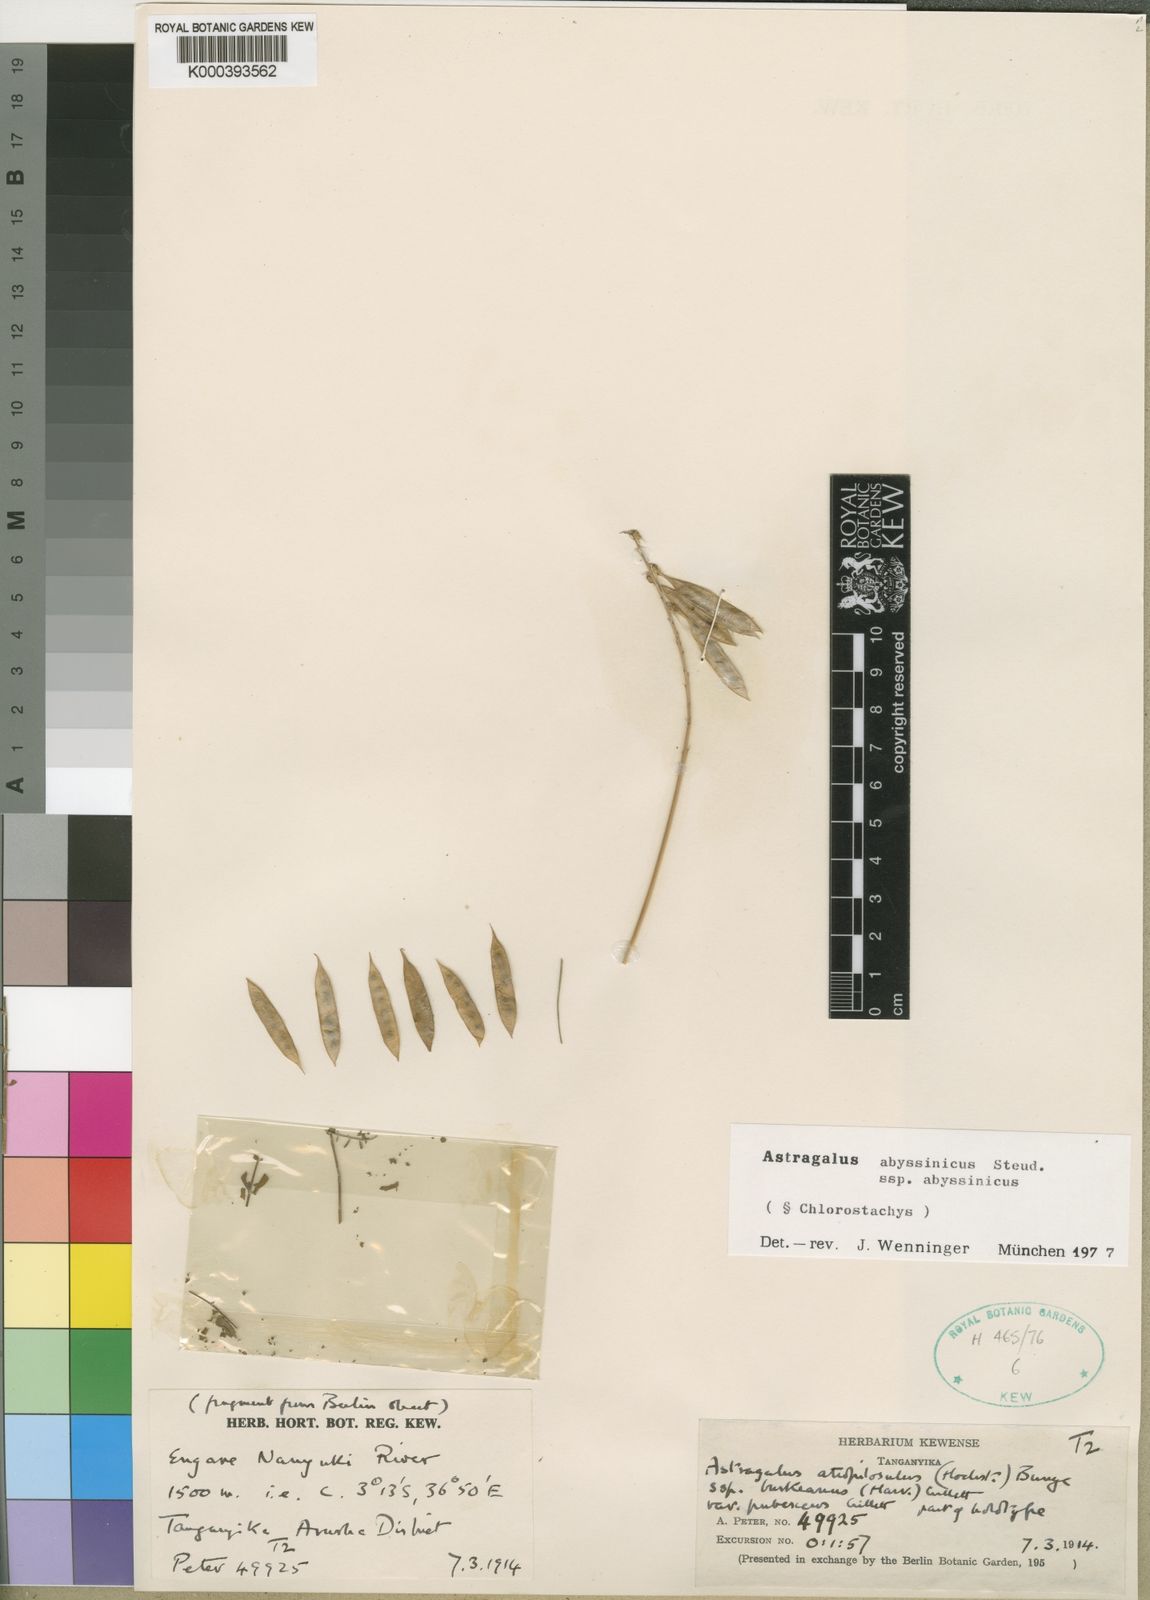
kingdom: Plantae
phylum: Tracheophyta
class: Magnoliopsida
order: Fabales
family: Fabaceae
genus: Astragalus
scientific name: Astragalus atropilosulus
